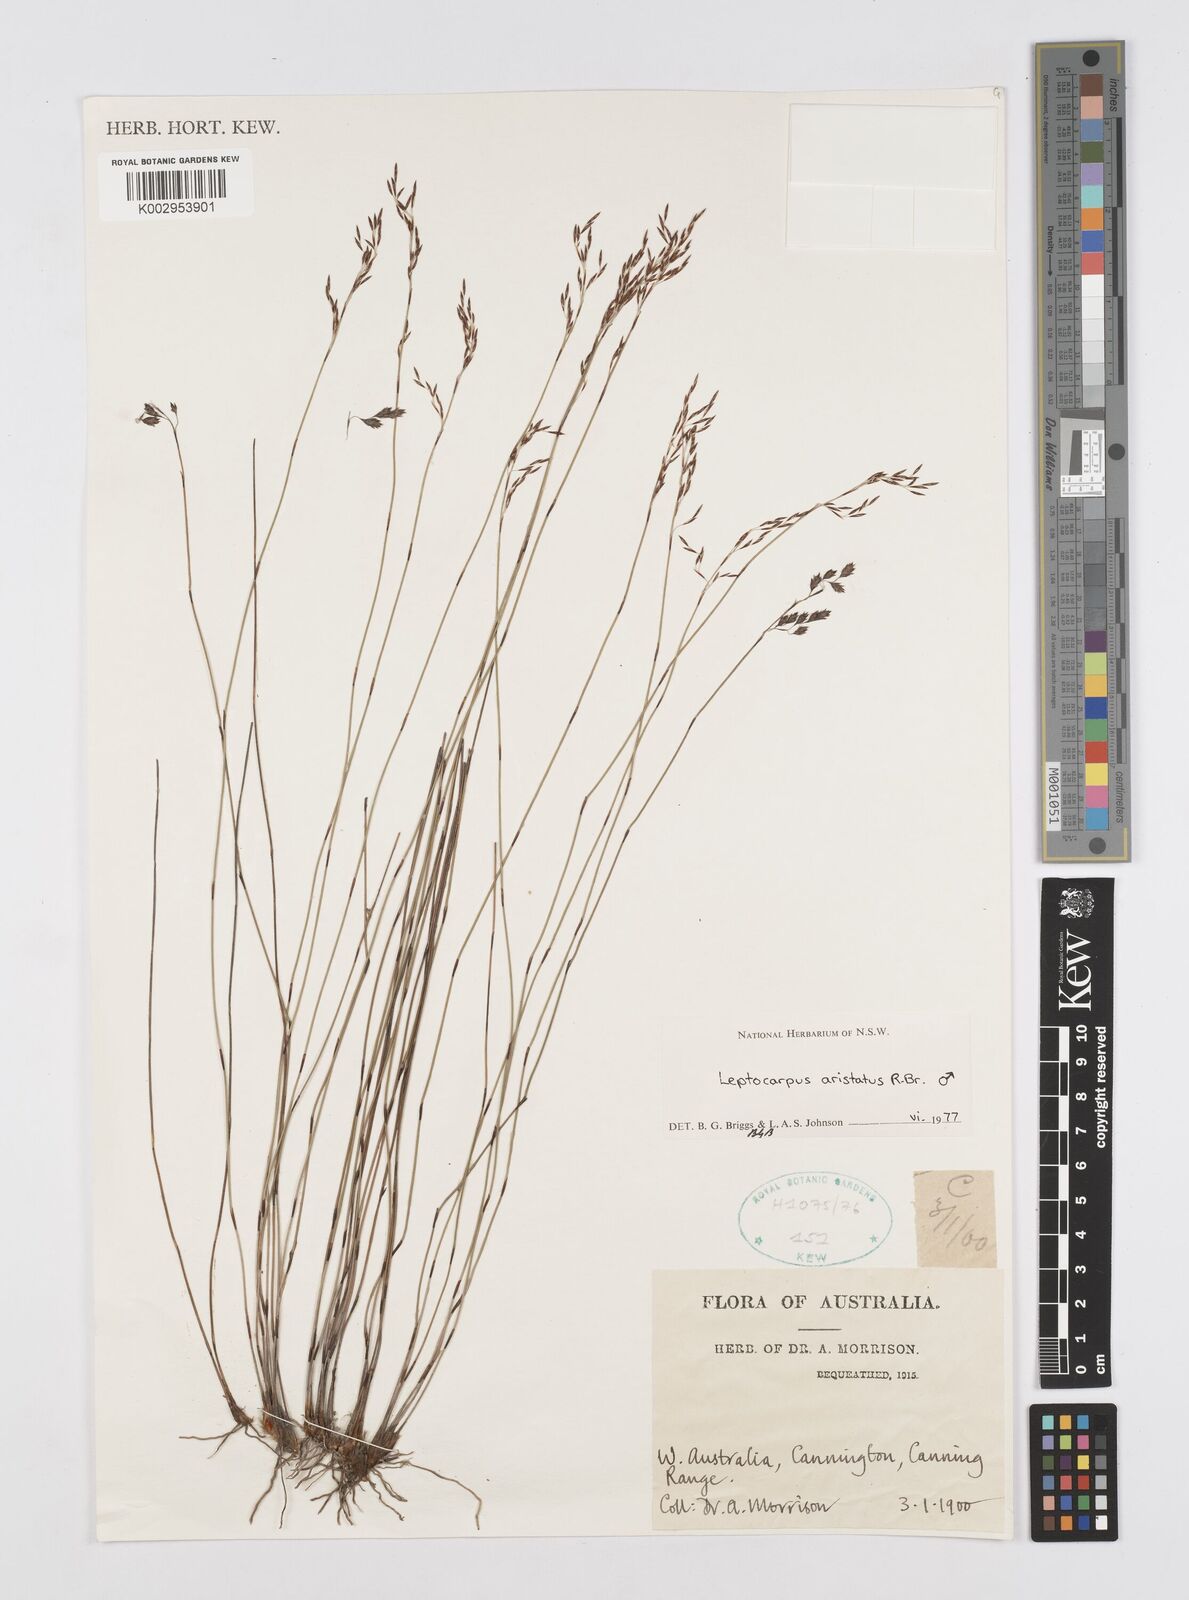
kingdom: Plantae
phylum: Tracheophyta
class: Liliopsida
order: Poales
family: Restionaceae
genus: Chaetanthus
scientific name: Chaetanthus aristatus
